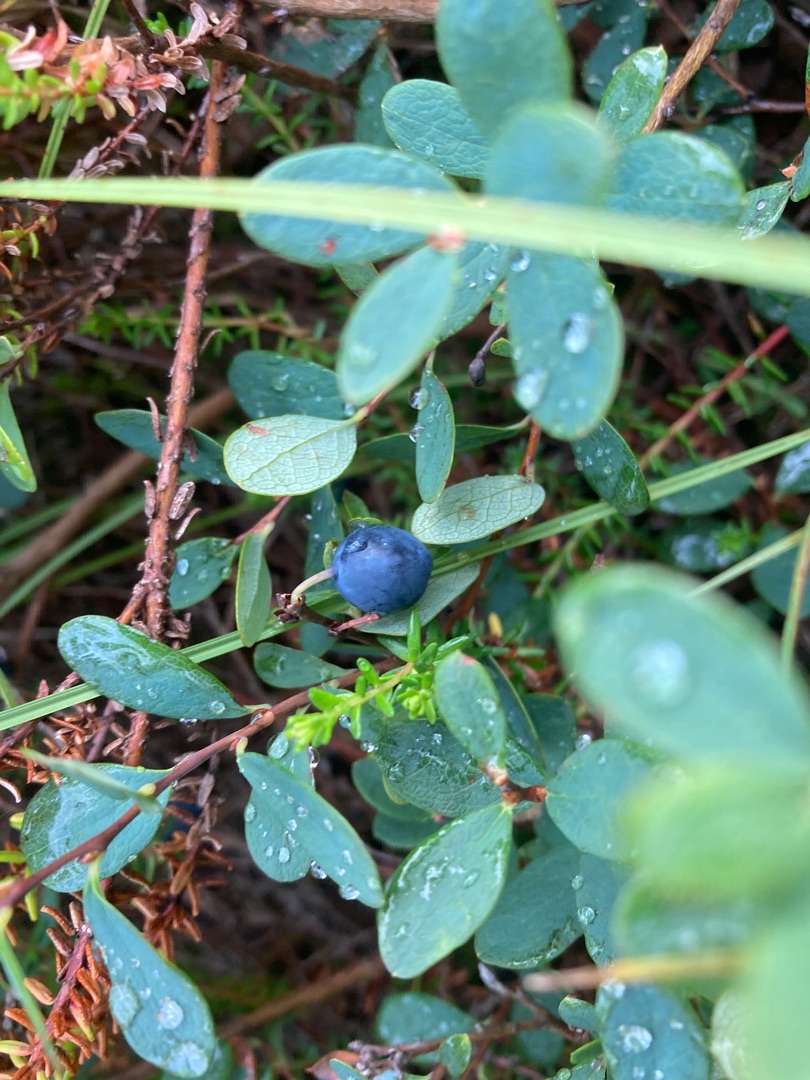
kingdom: Plantae
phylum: Tracheophyta
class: Magnoliopsida
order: Ericales
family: Ericaceae
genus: Vaccinium
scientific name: Vaccinium uliginosum
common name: Mose-bølle
